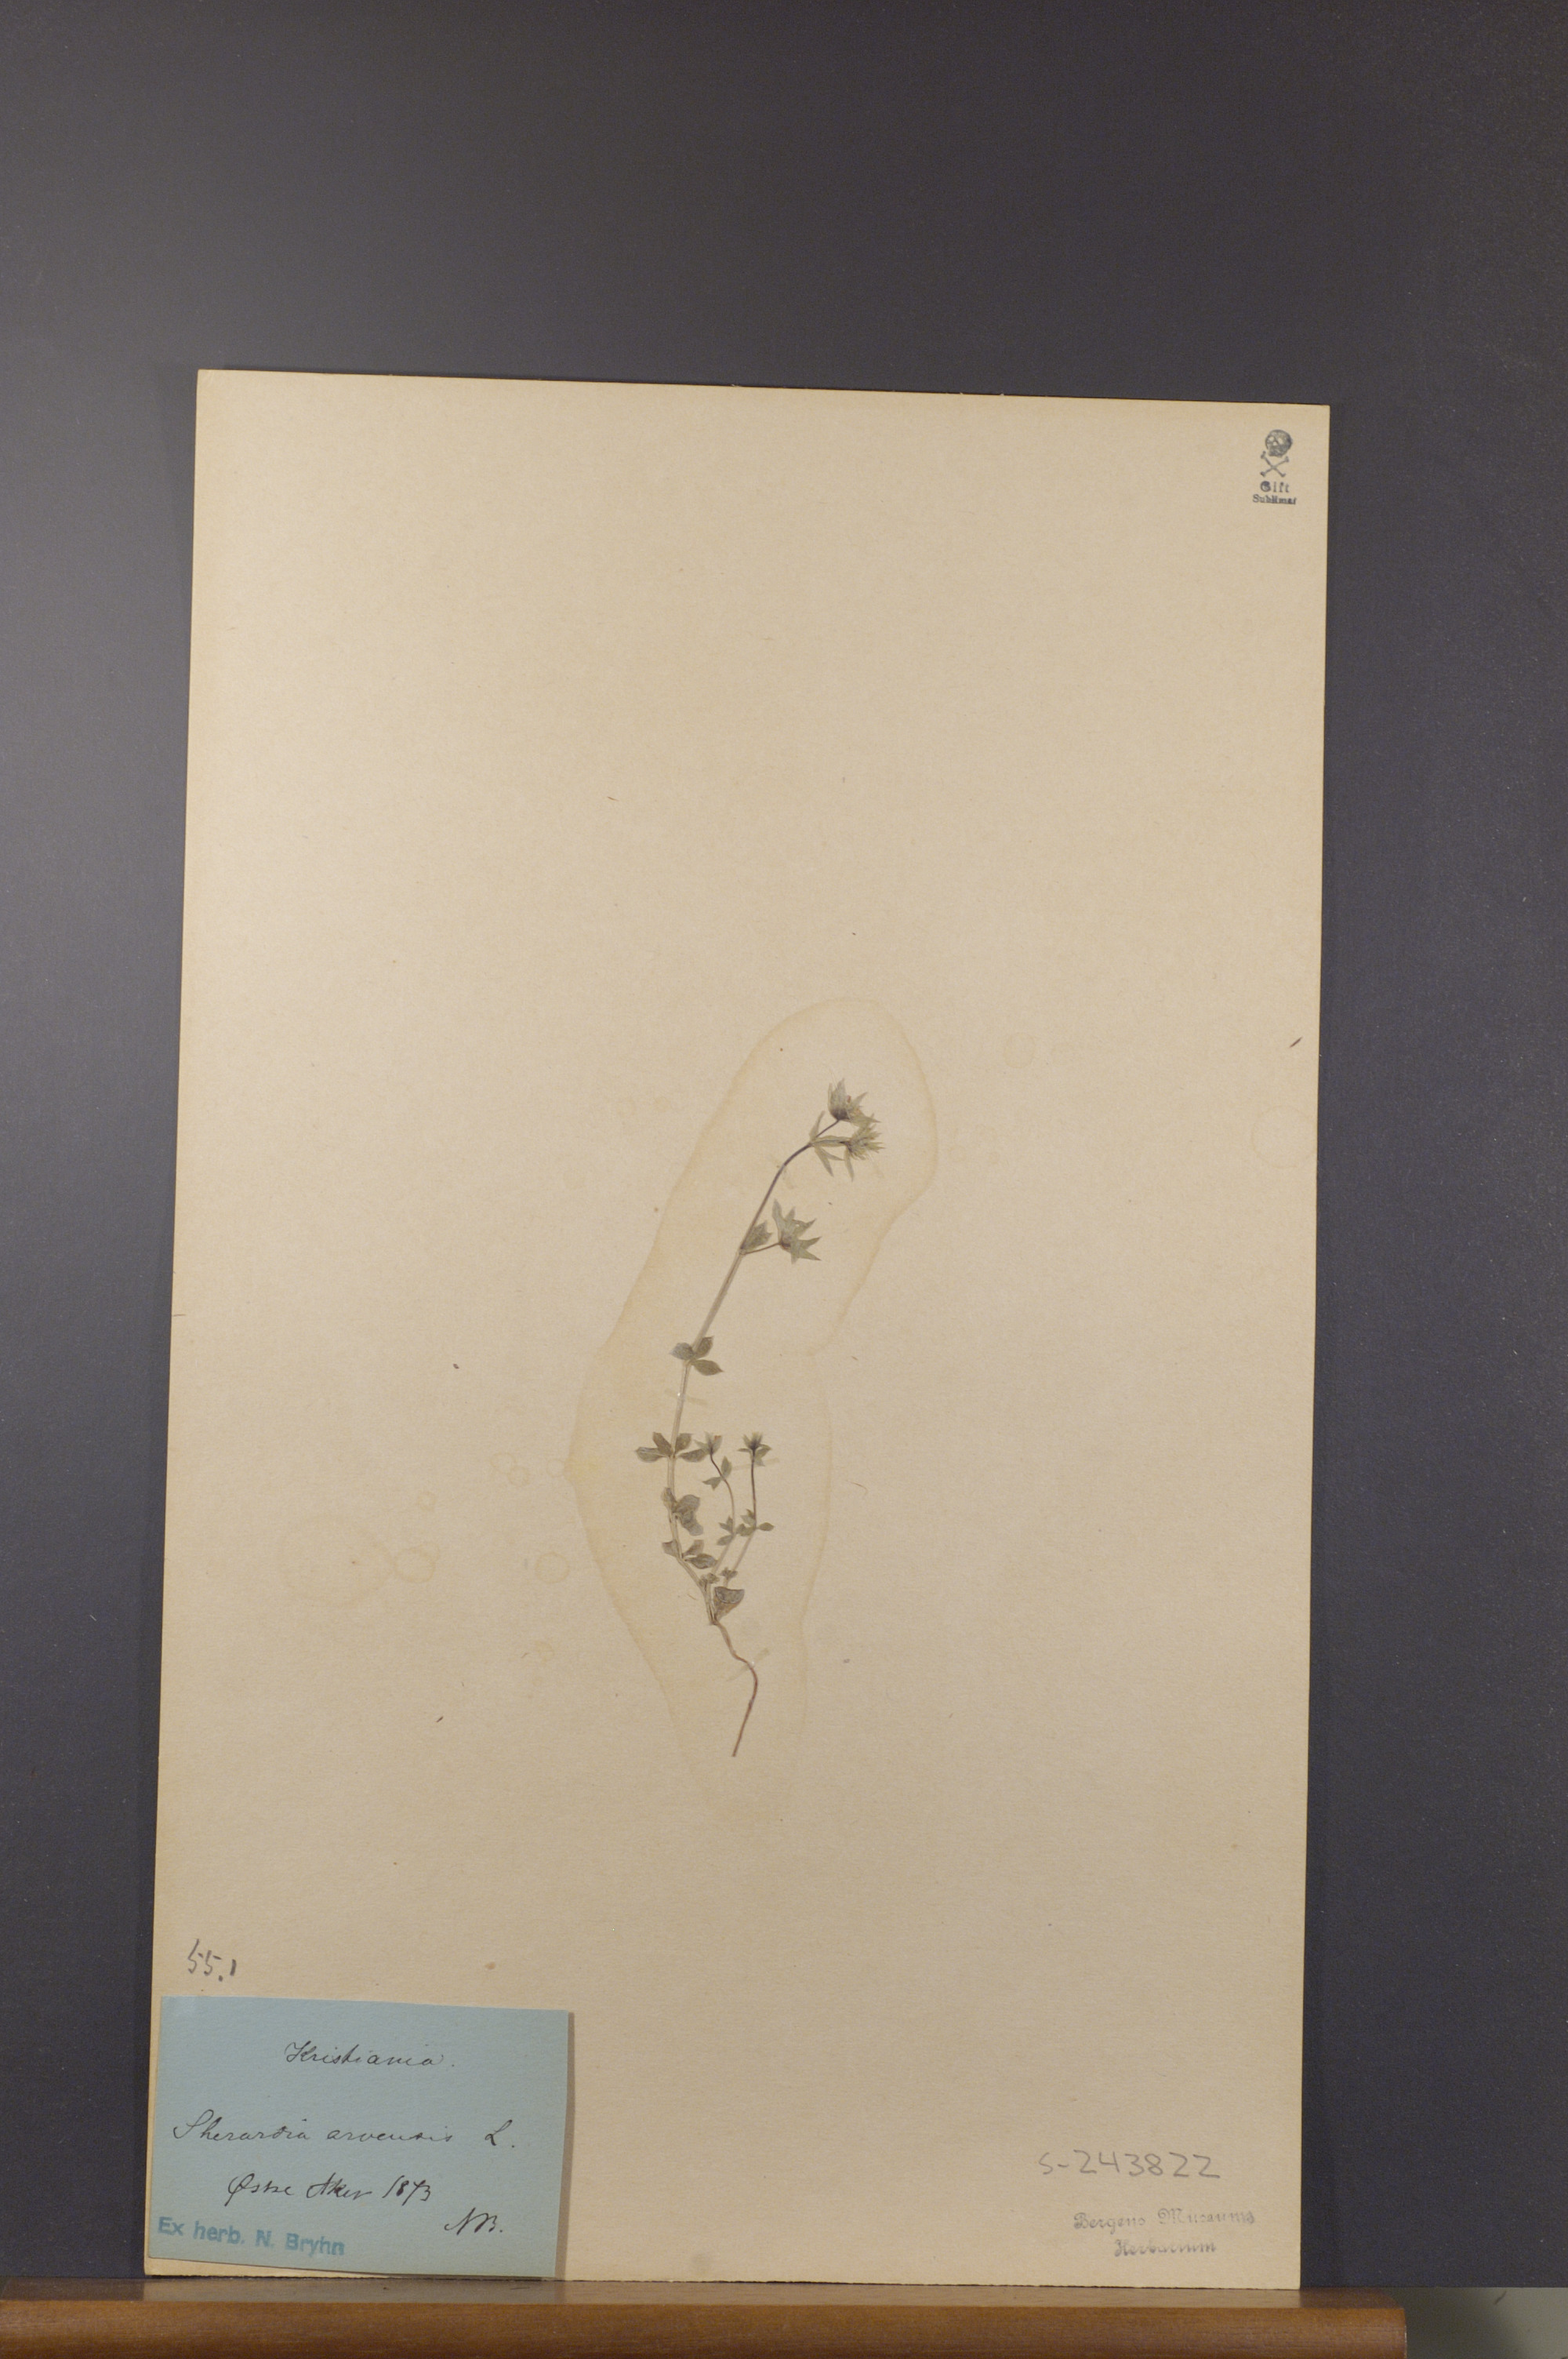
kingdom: Plantae
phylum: Tracheophyta
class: Magnoliopsida
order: Gentianales
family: Rubiaceae
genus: Sherardia
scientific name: Sherardia arvensis
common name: Field madder
